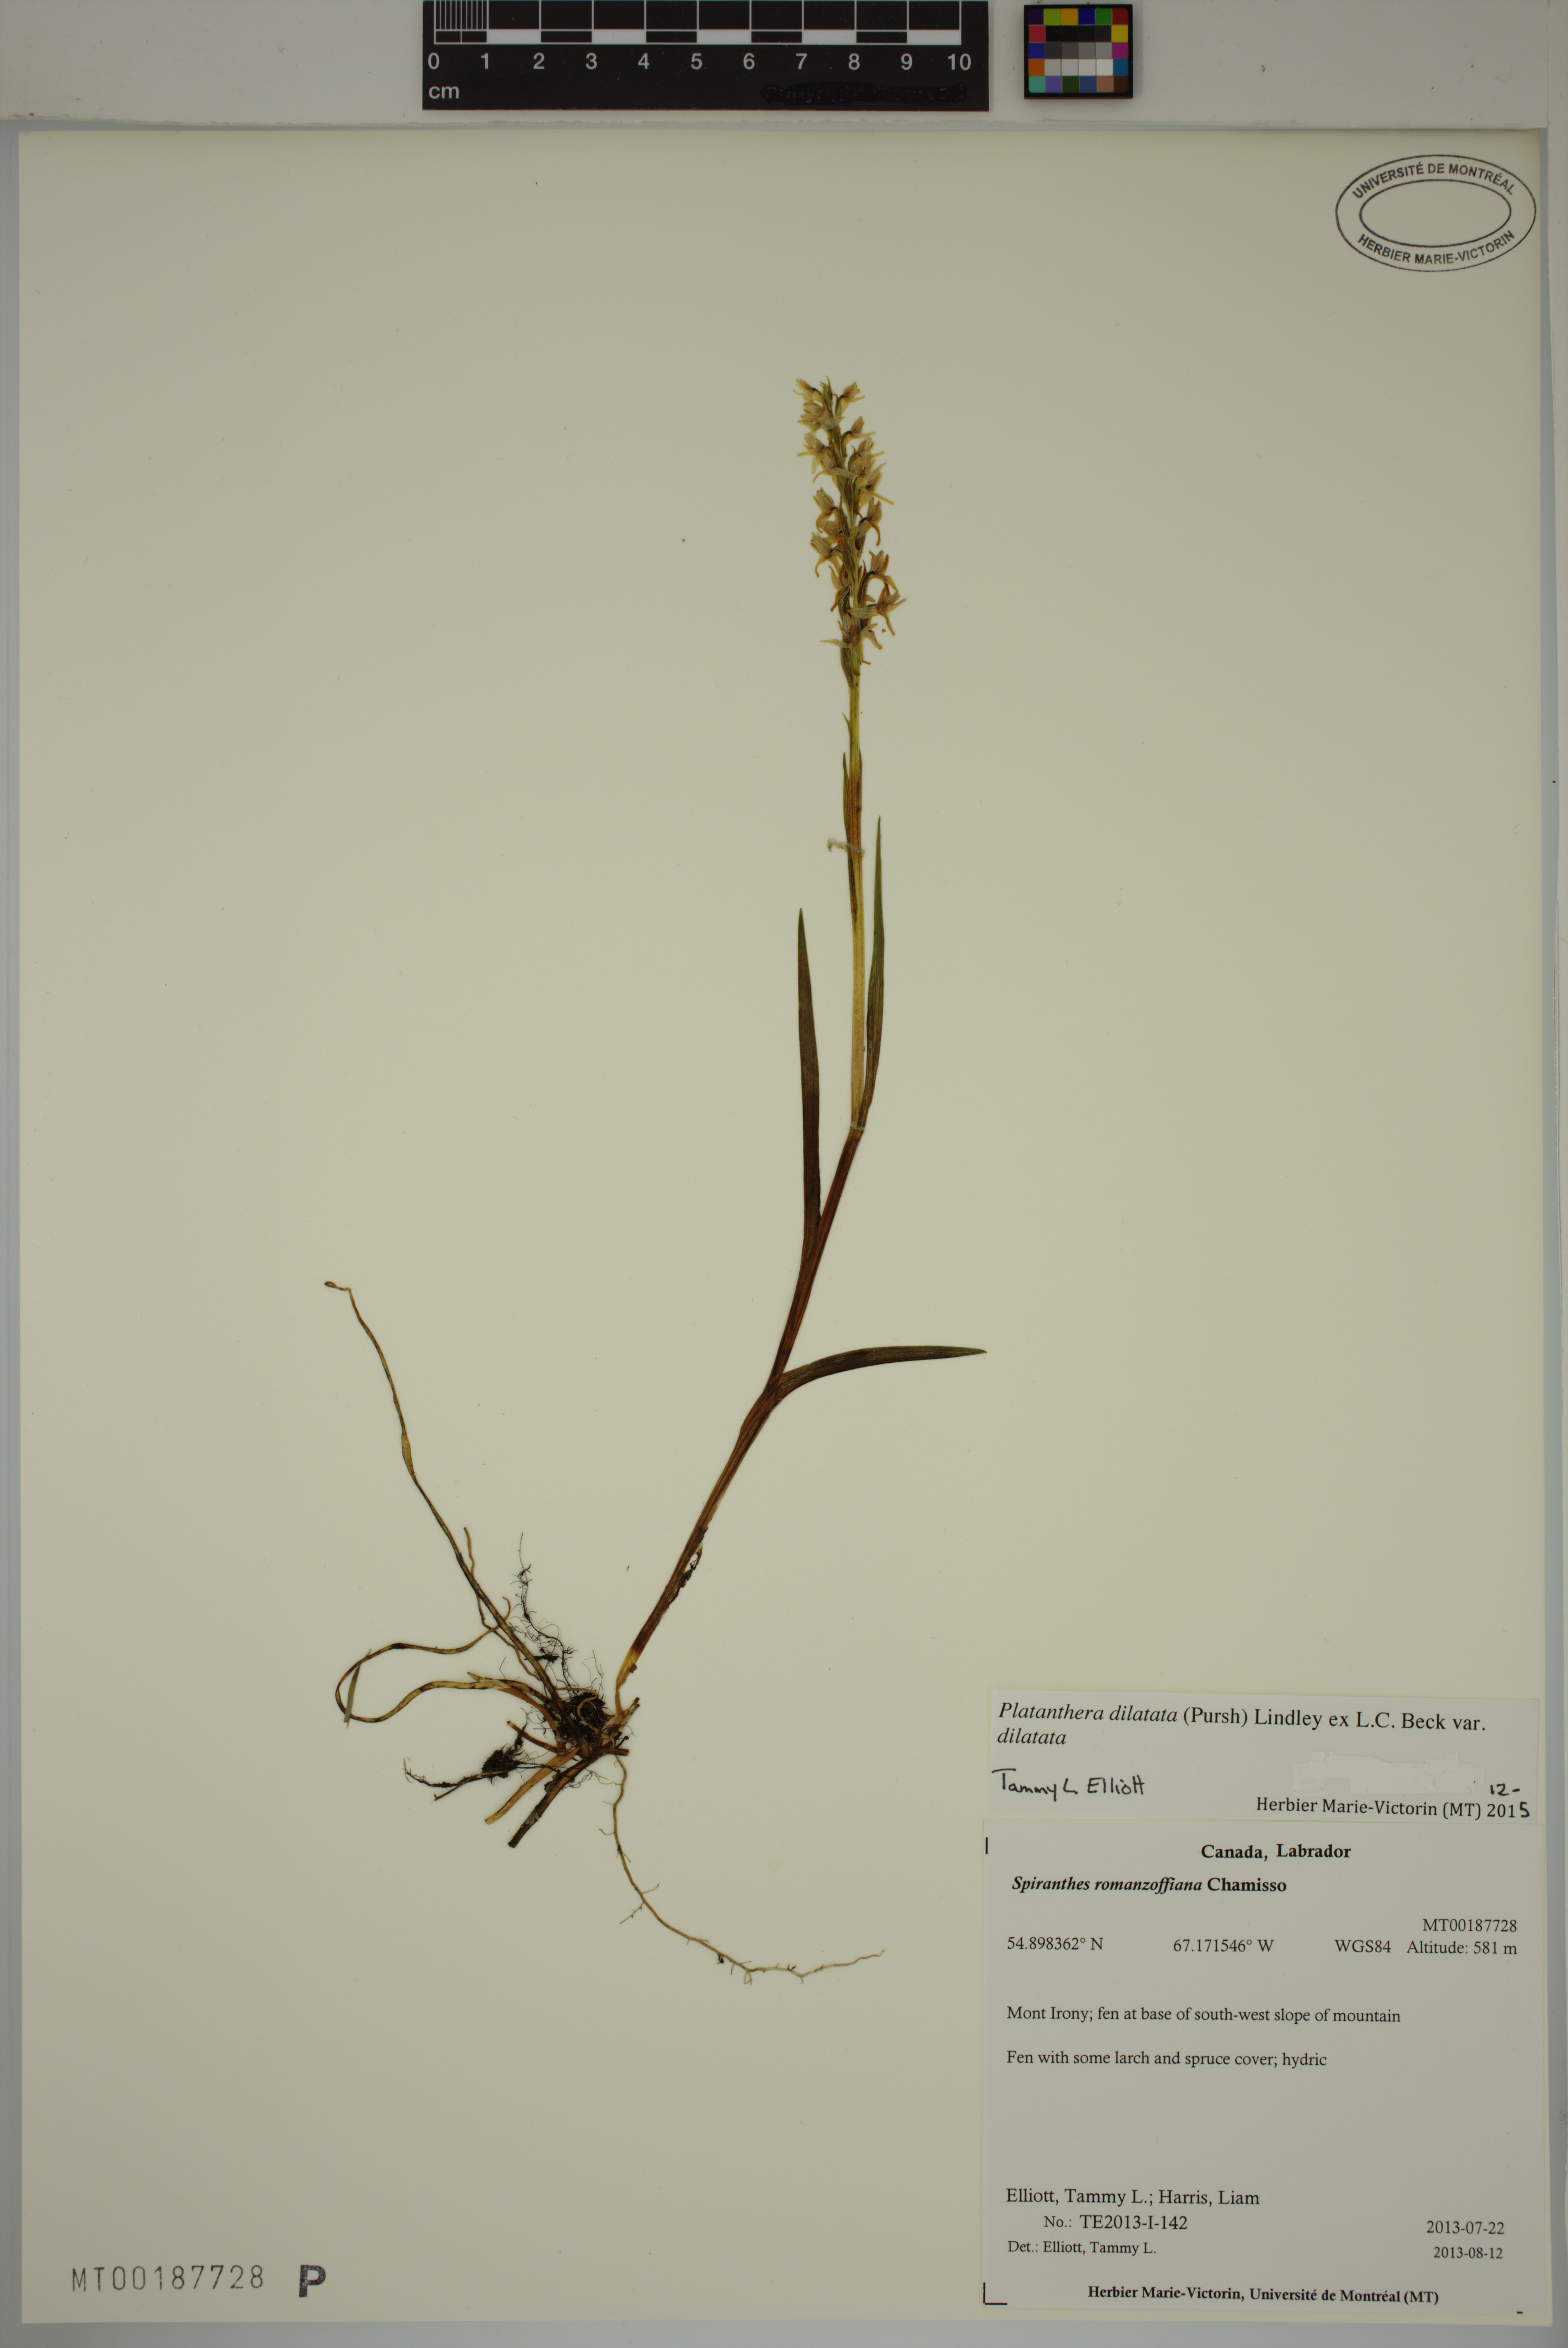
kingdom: Plantae
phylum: Tracheophyta
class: Liliopsida
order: Asparagales
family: Orchidaceae
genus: Platanthera
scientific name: Platanthera dilatata
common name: Bog candles
